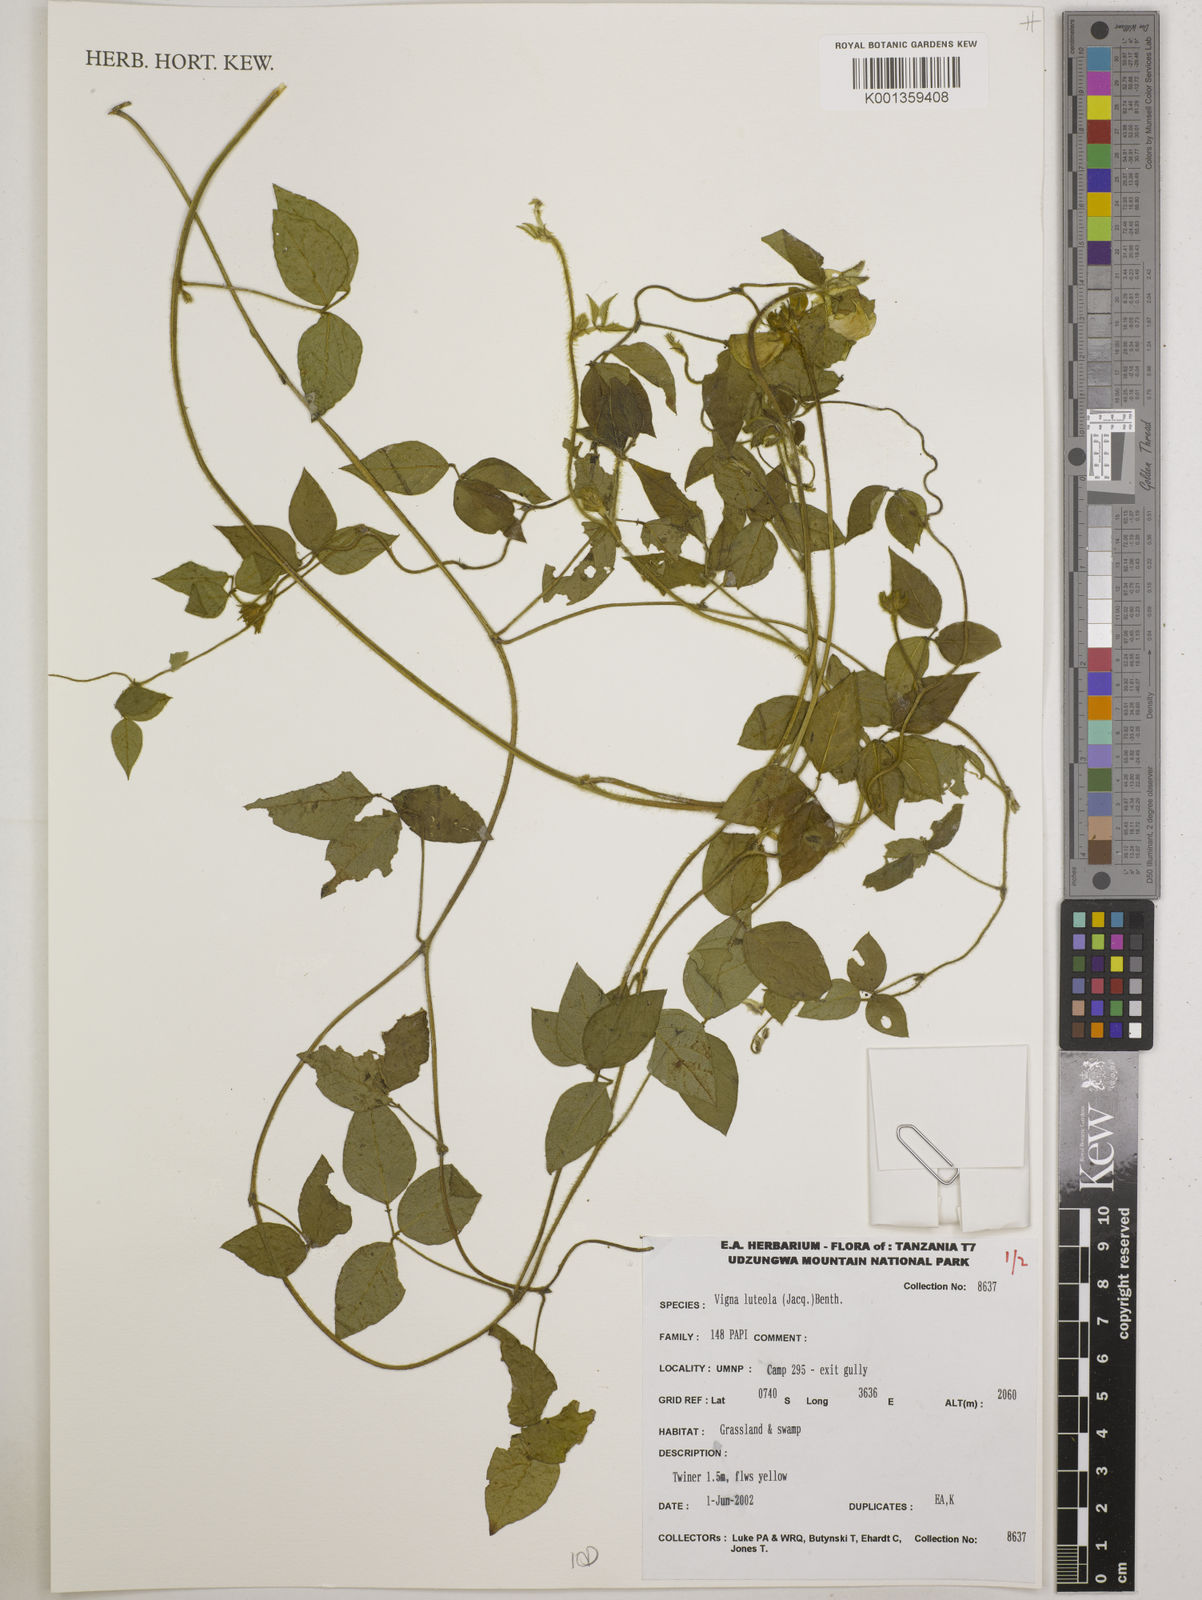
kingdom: Plantae
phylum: Tracheophyta
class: Magnoliopsida
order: Fabales
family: Fabaceae
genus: Vigna
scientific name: Vigna luteola
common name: Hairypod cowpea
